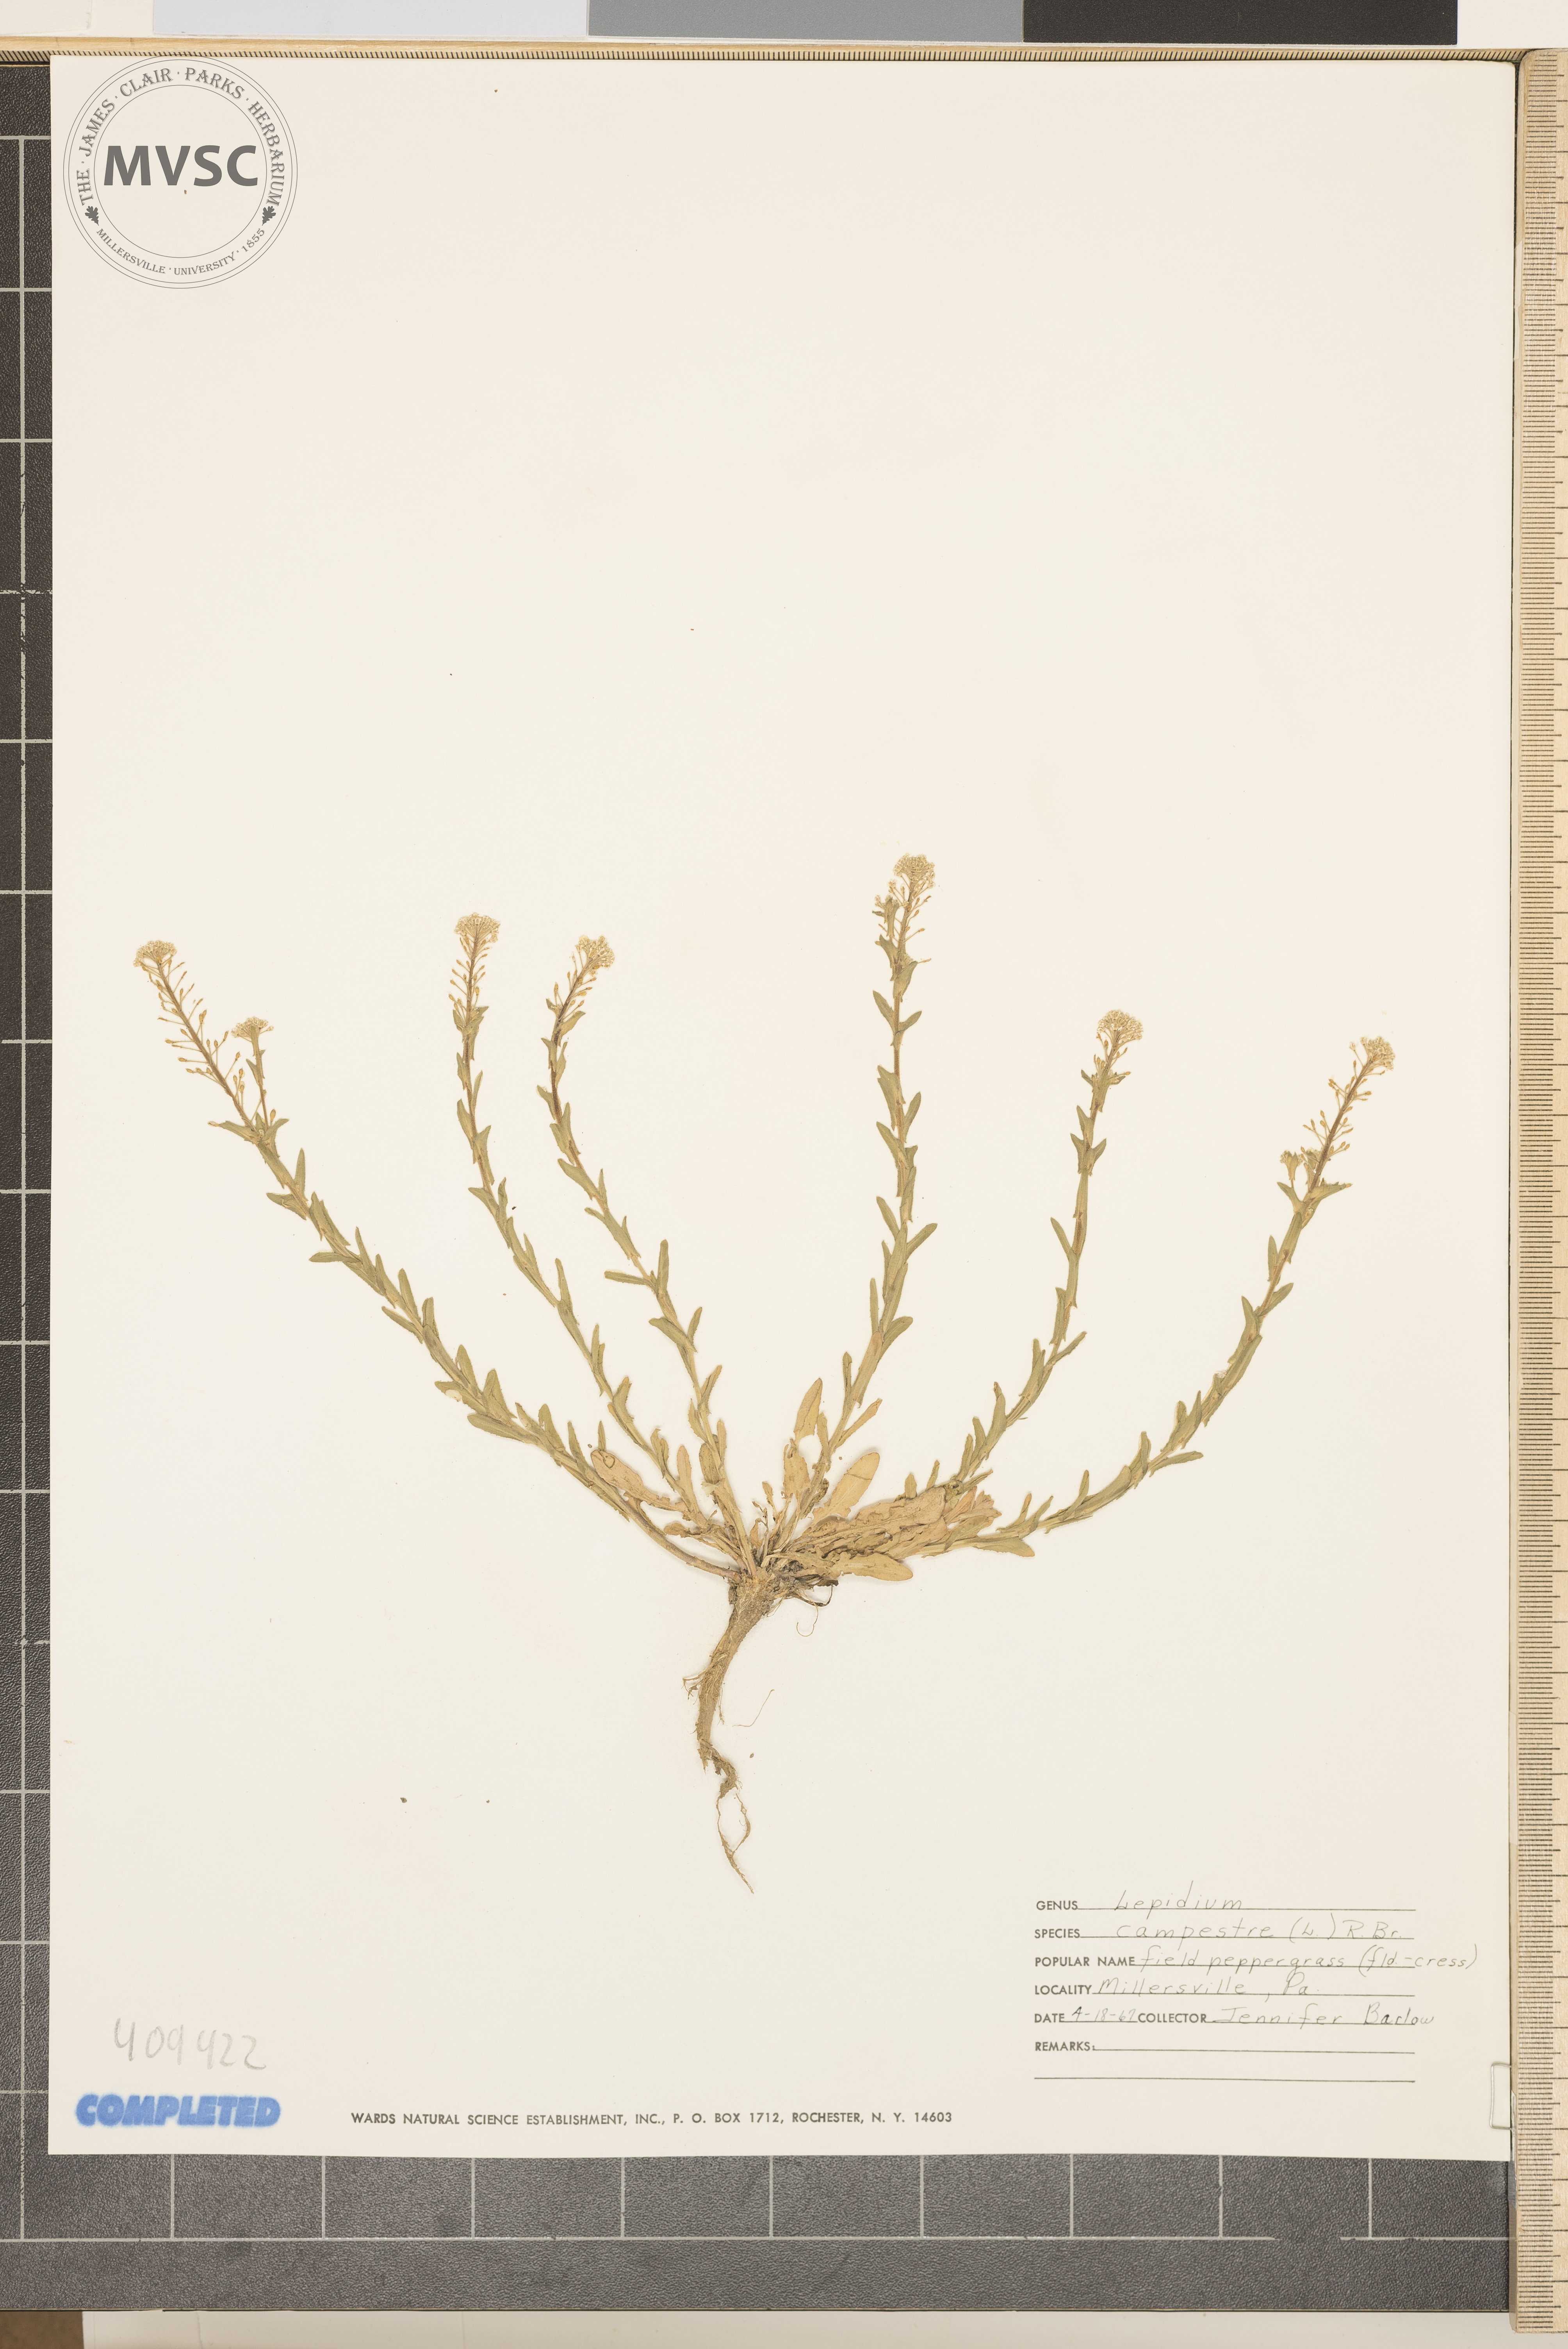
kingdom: Plantae
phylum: Tracheophyta
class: Magnoliopsida
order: Brassicales
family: Brassicaceae
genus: Lepidium
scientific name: Lepidium campestre
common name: field pepperweed
